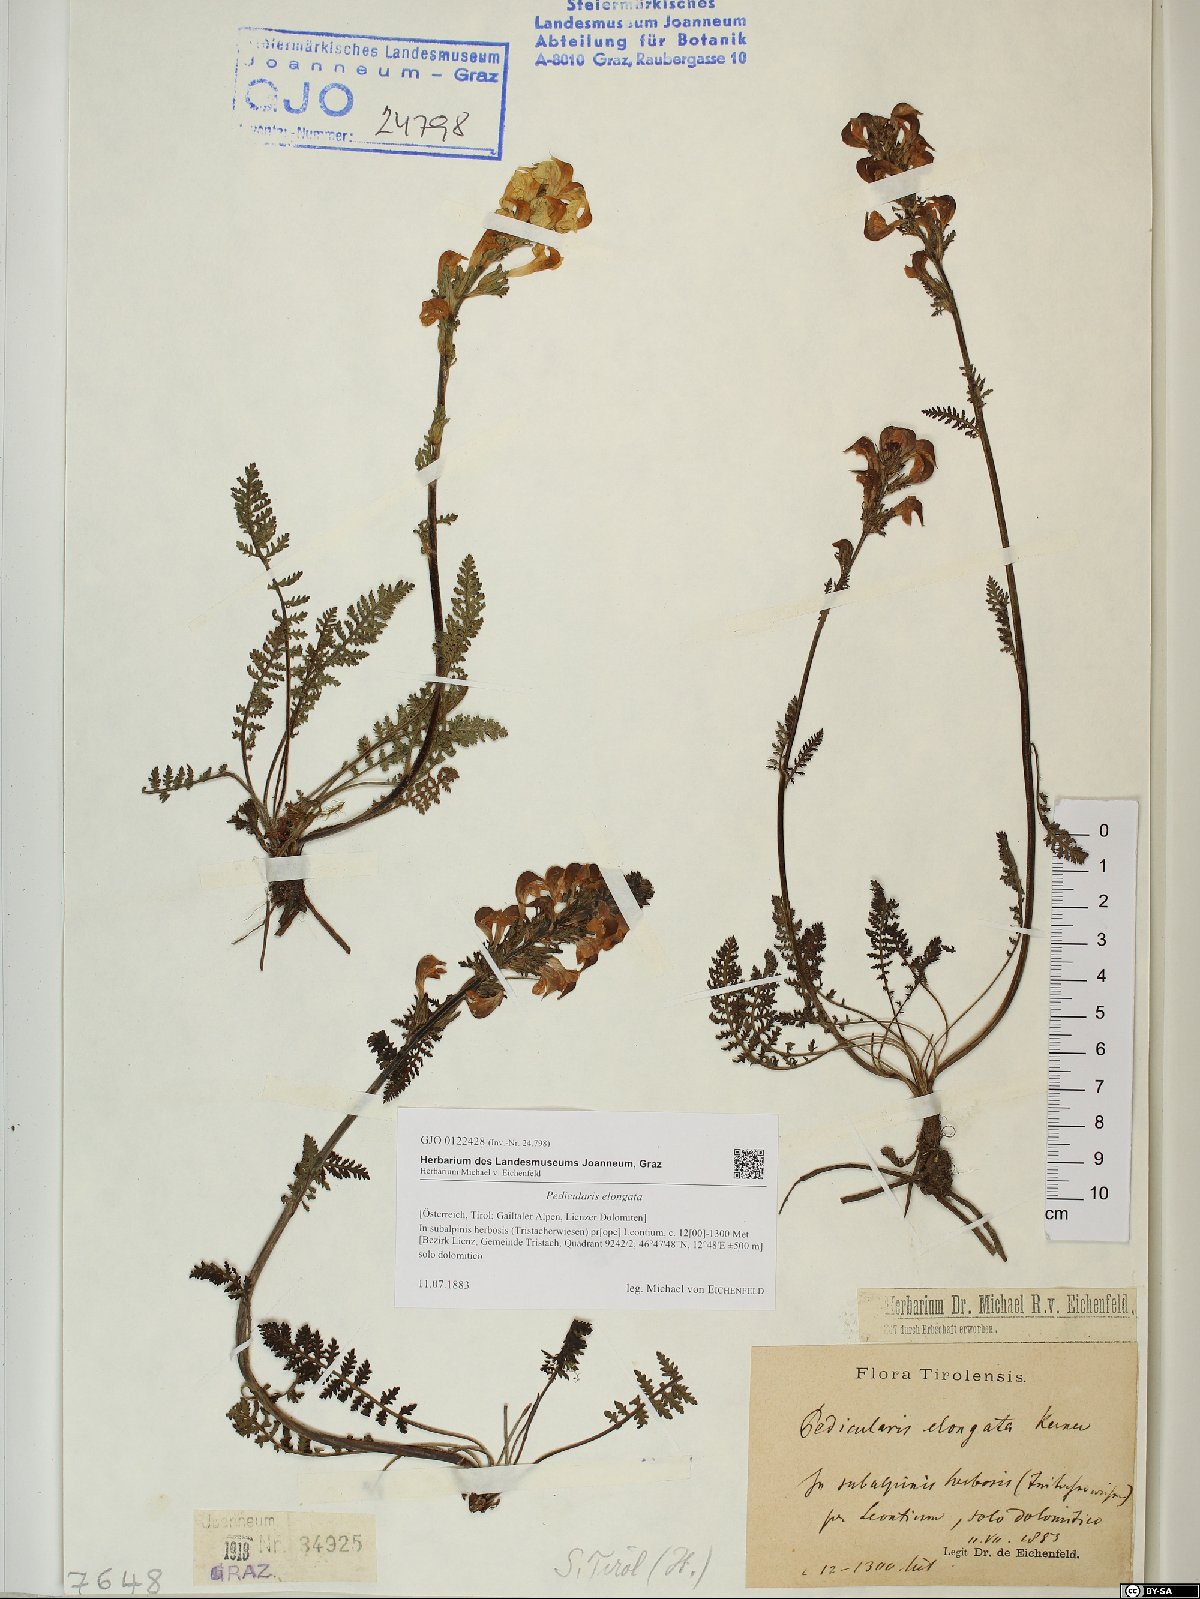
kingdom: Plantae
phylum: Tracheophyta
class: Magnoliopsida
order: Lamiales
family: Orobanchaceae
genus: Pedicularis
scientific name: Pedicularis elongata
